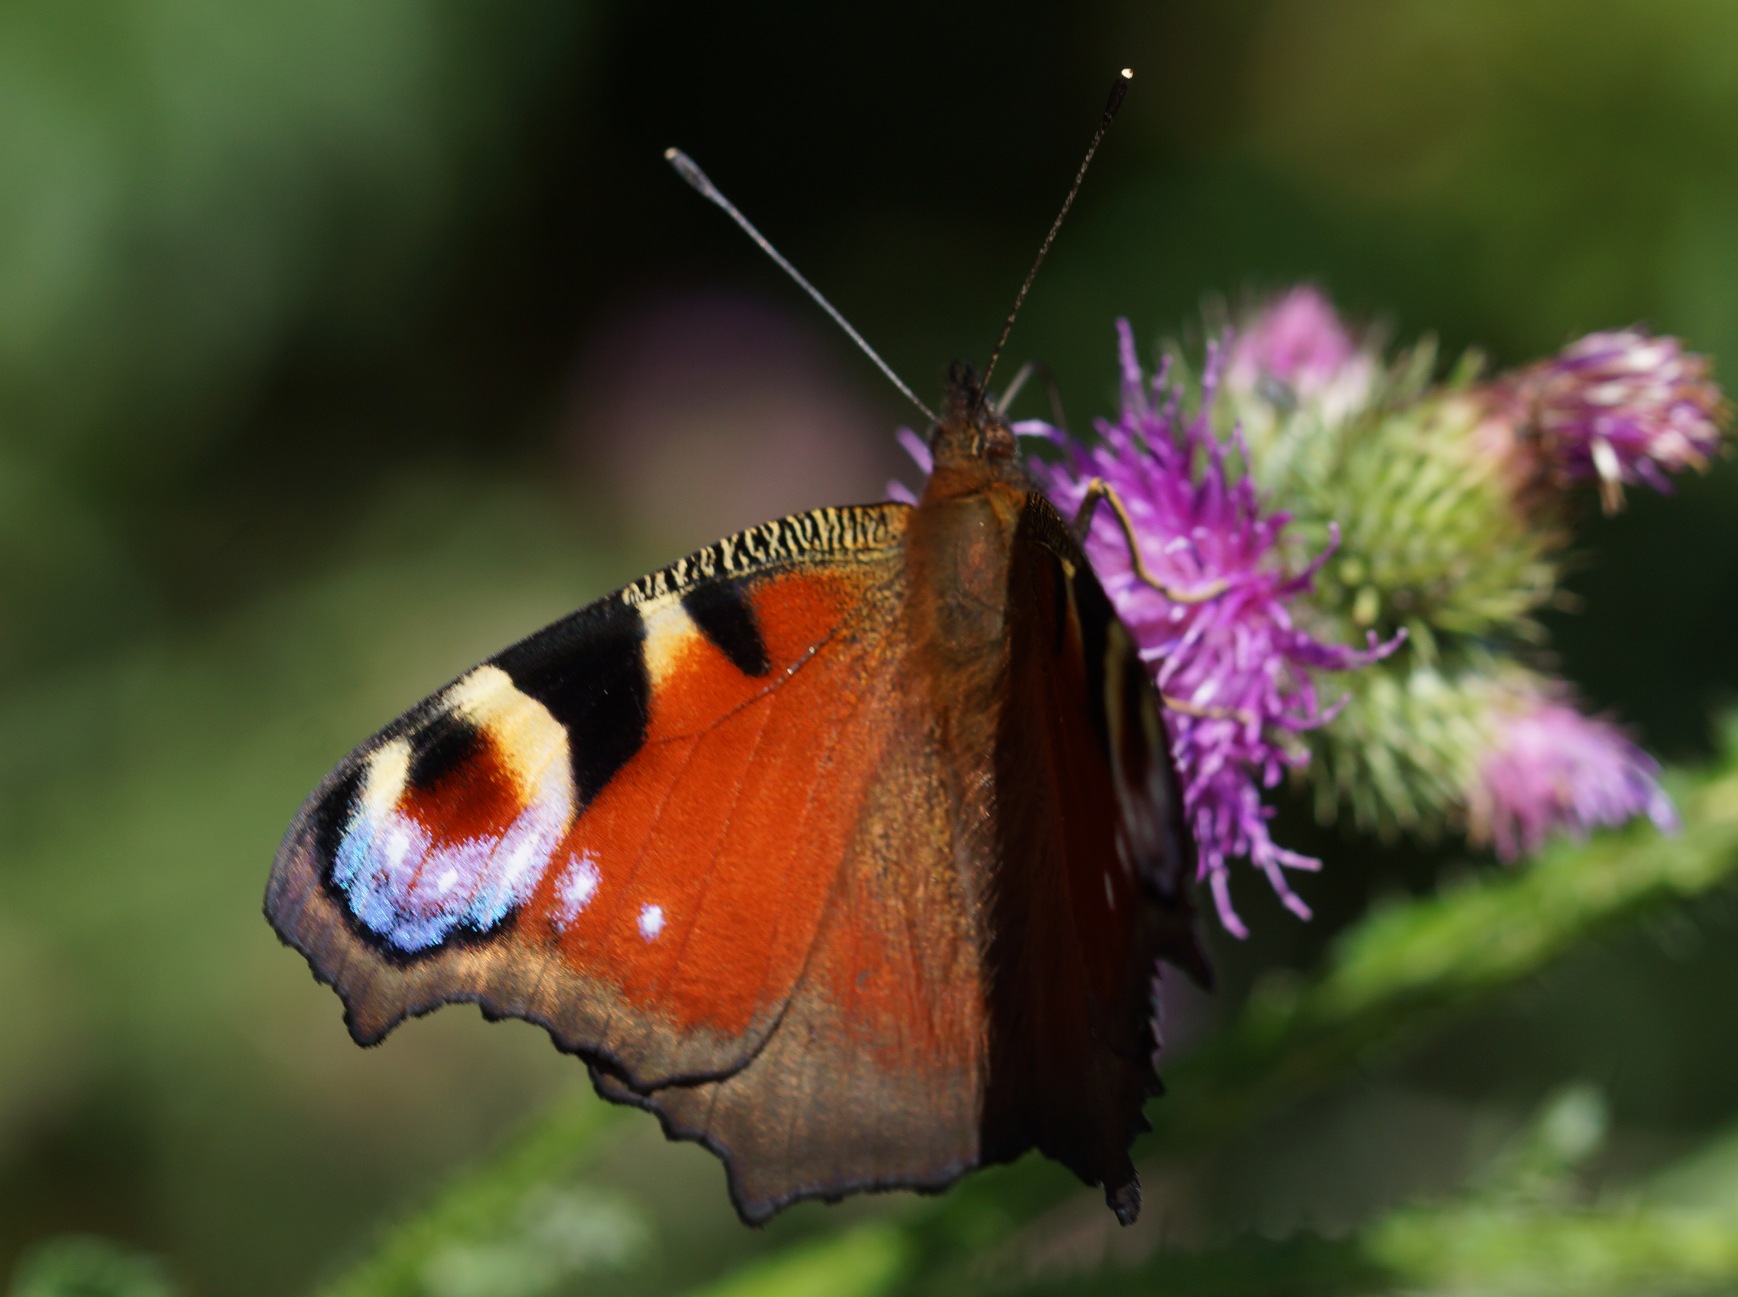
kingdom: Animalia
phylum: Arthropoda
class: Insecta
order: Lepidoptera
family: Nymphalidae
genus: Aglais
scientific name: Aglais io
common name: Dagpåfugleøje
